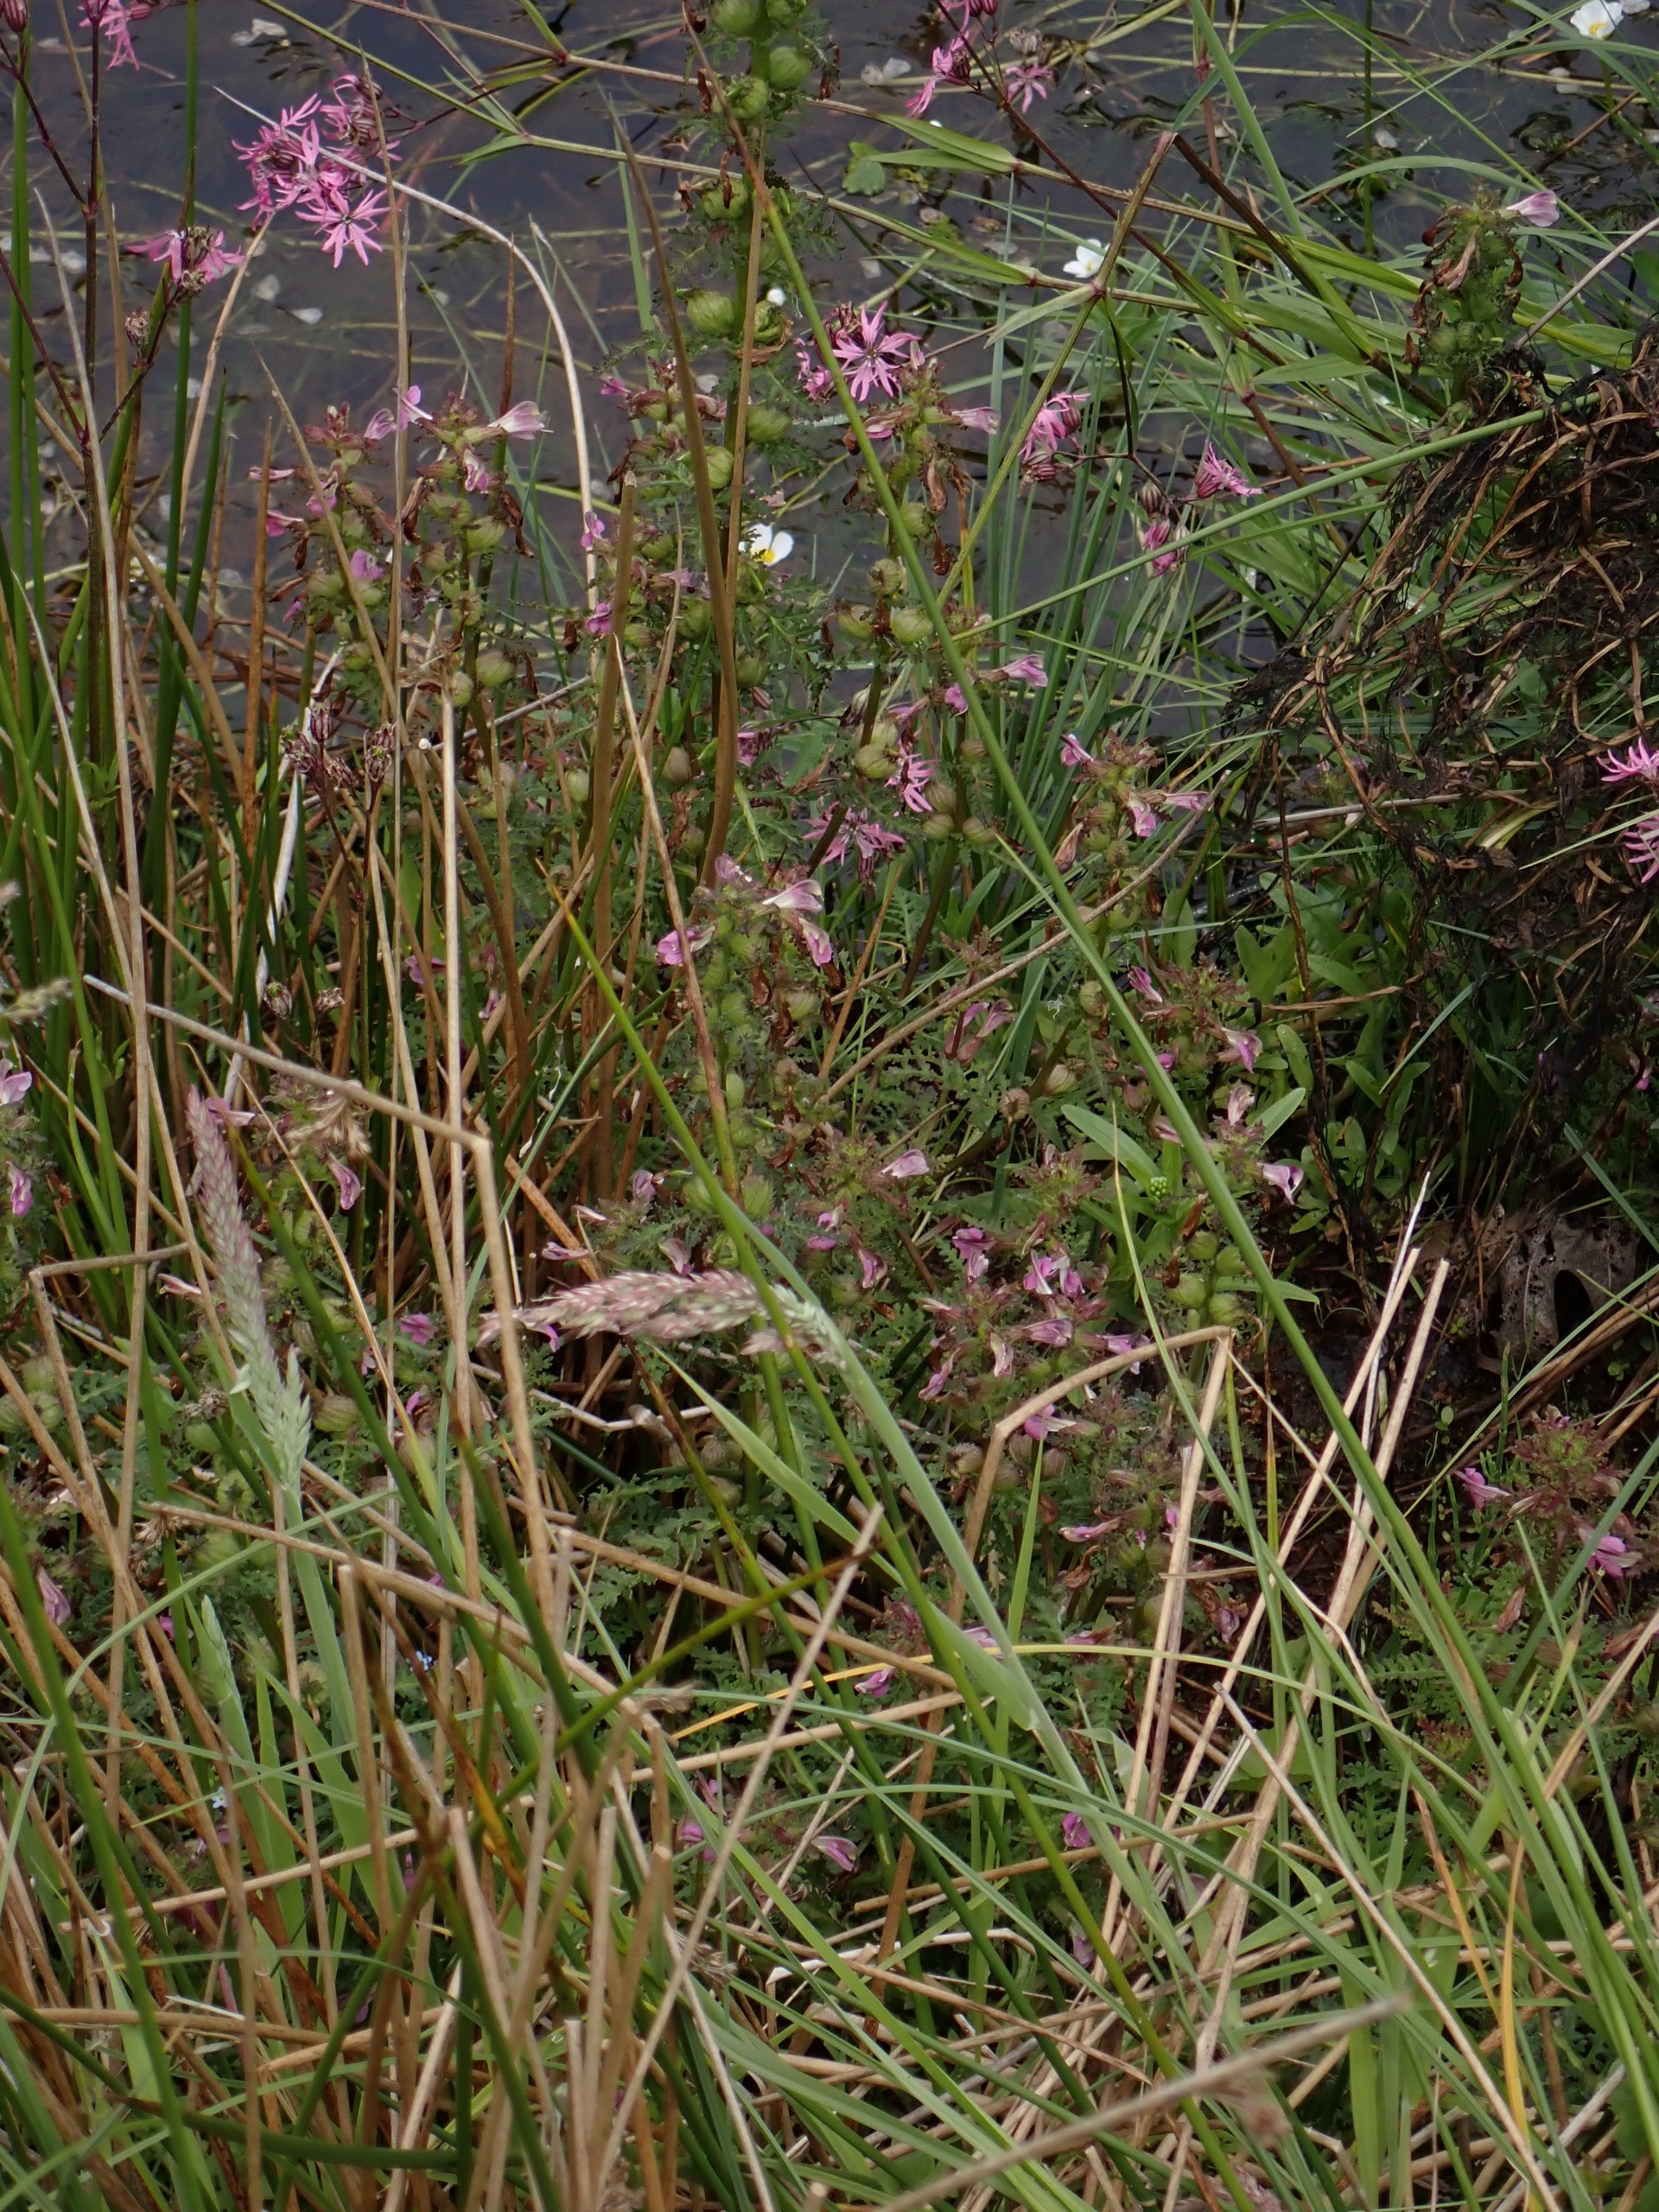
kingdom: Plantae
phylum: Tracheophyta
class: Magnoliopsida
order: Lamiales
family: Orobanchaceae
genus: Pedicularis
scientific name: Pedicularis palustris
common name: Eng-troldurt
